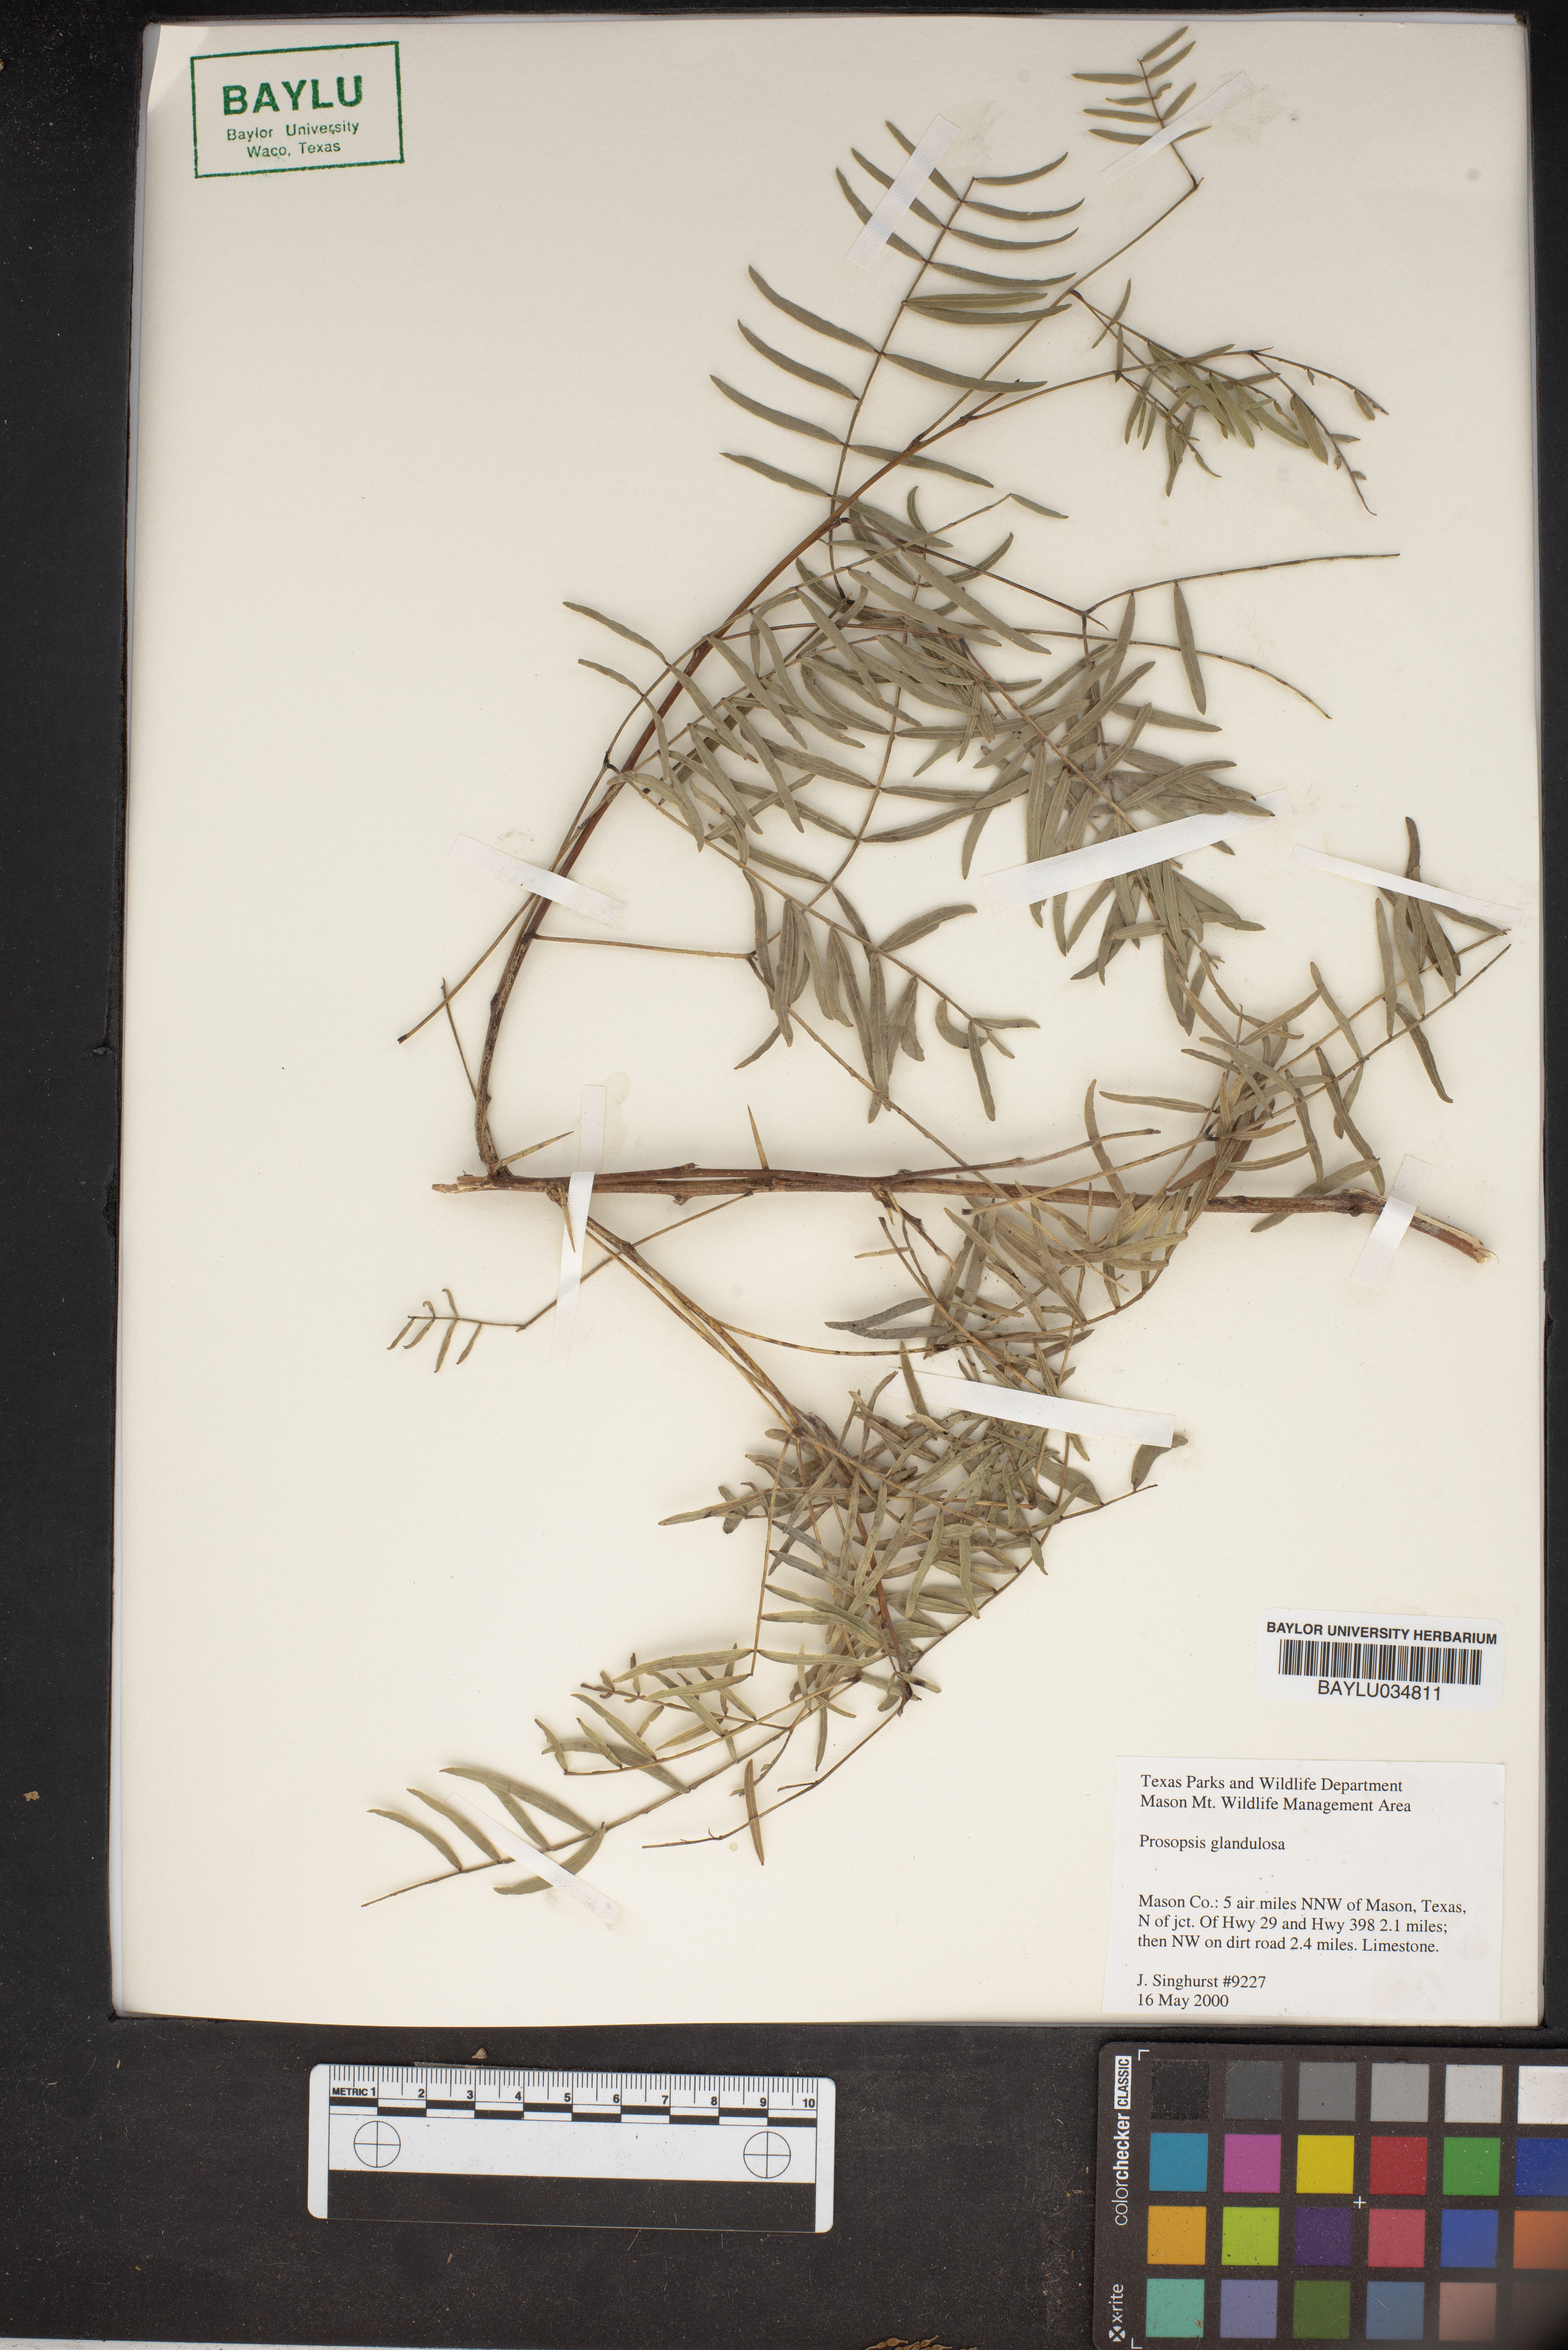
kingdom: Plantae
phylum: Tracheophyta
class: Magnoliopsida
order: Fabales
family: Fabaceae
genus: Prosopis
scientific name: Prosopis glandulosa
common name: Honey mesquite
